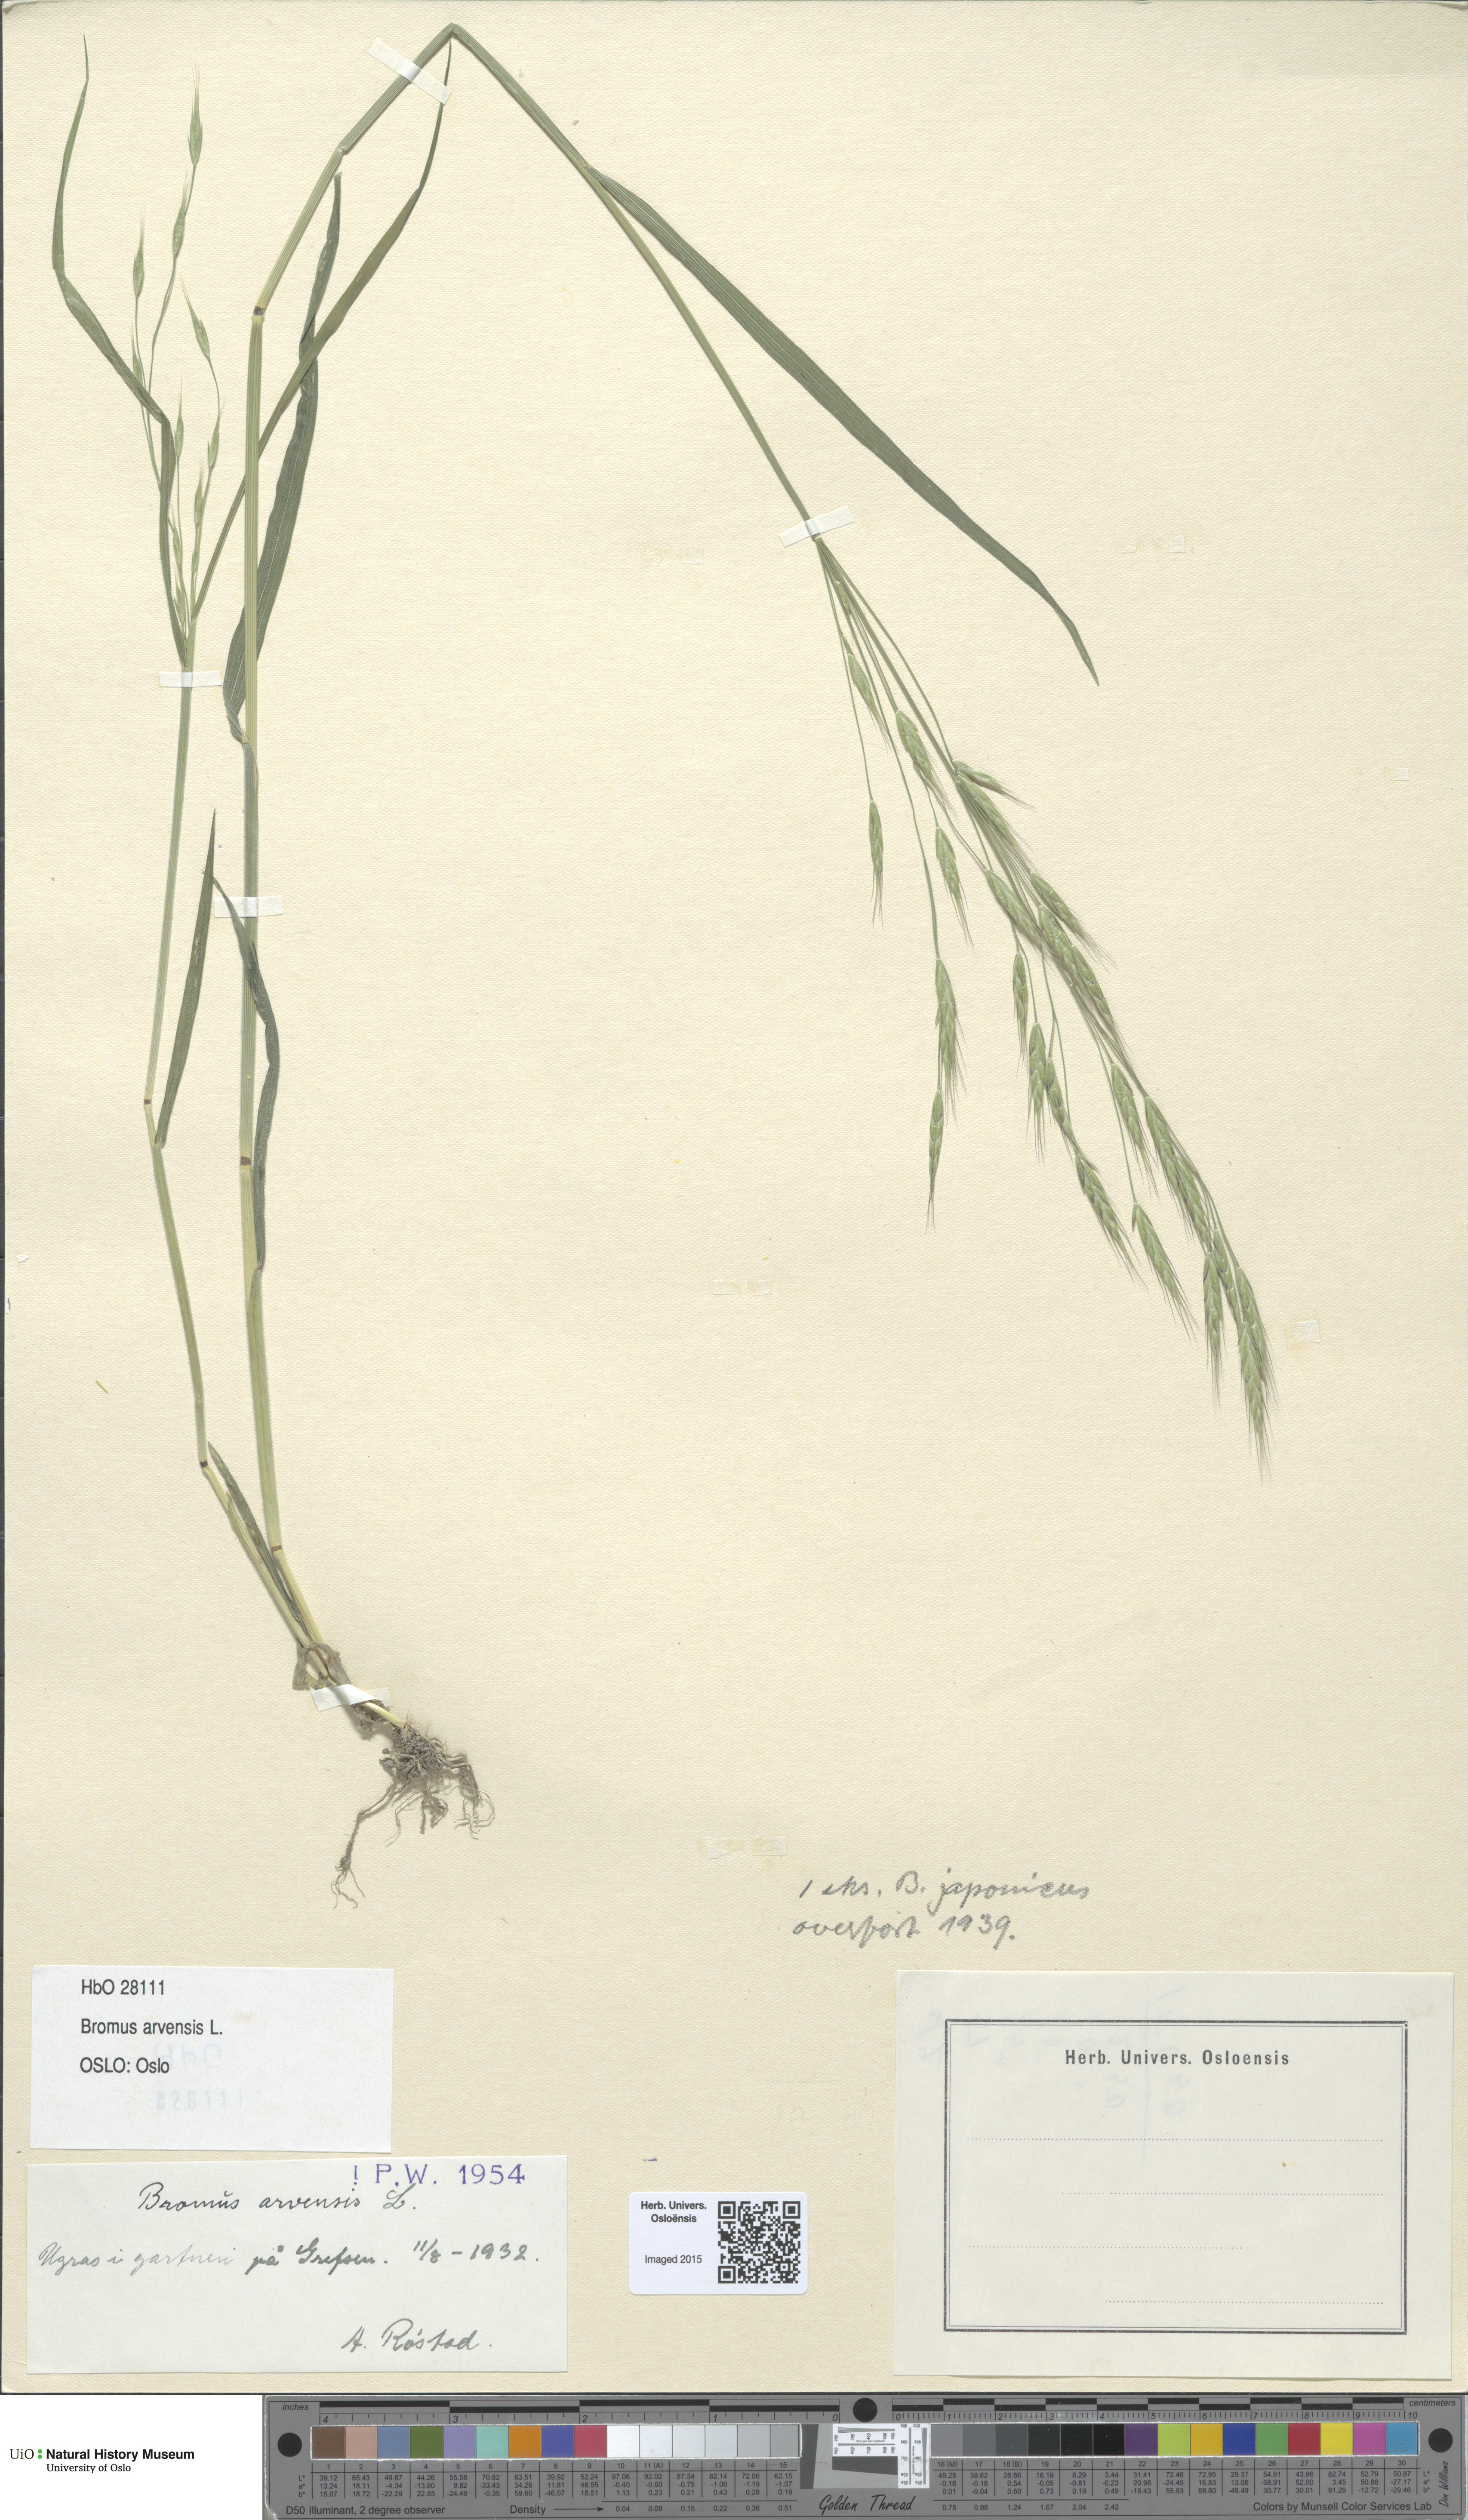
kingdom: Plantae
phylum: Tracheophyta
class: Liliopsida
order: Poales
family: Poaceae
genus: Bromus
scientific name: Bromus arvensis
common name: Field brome
